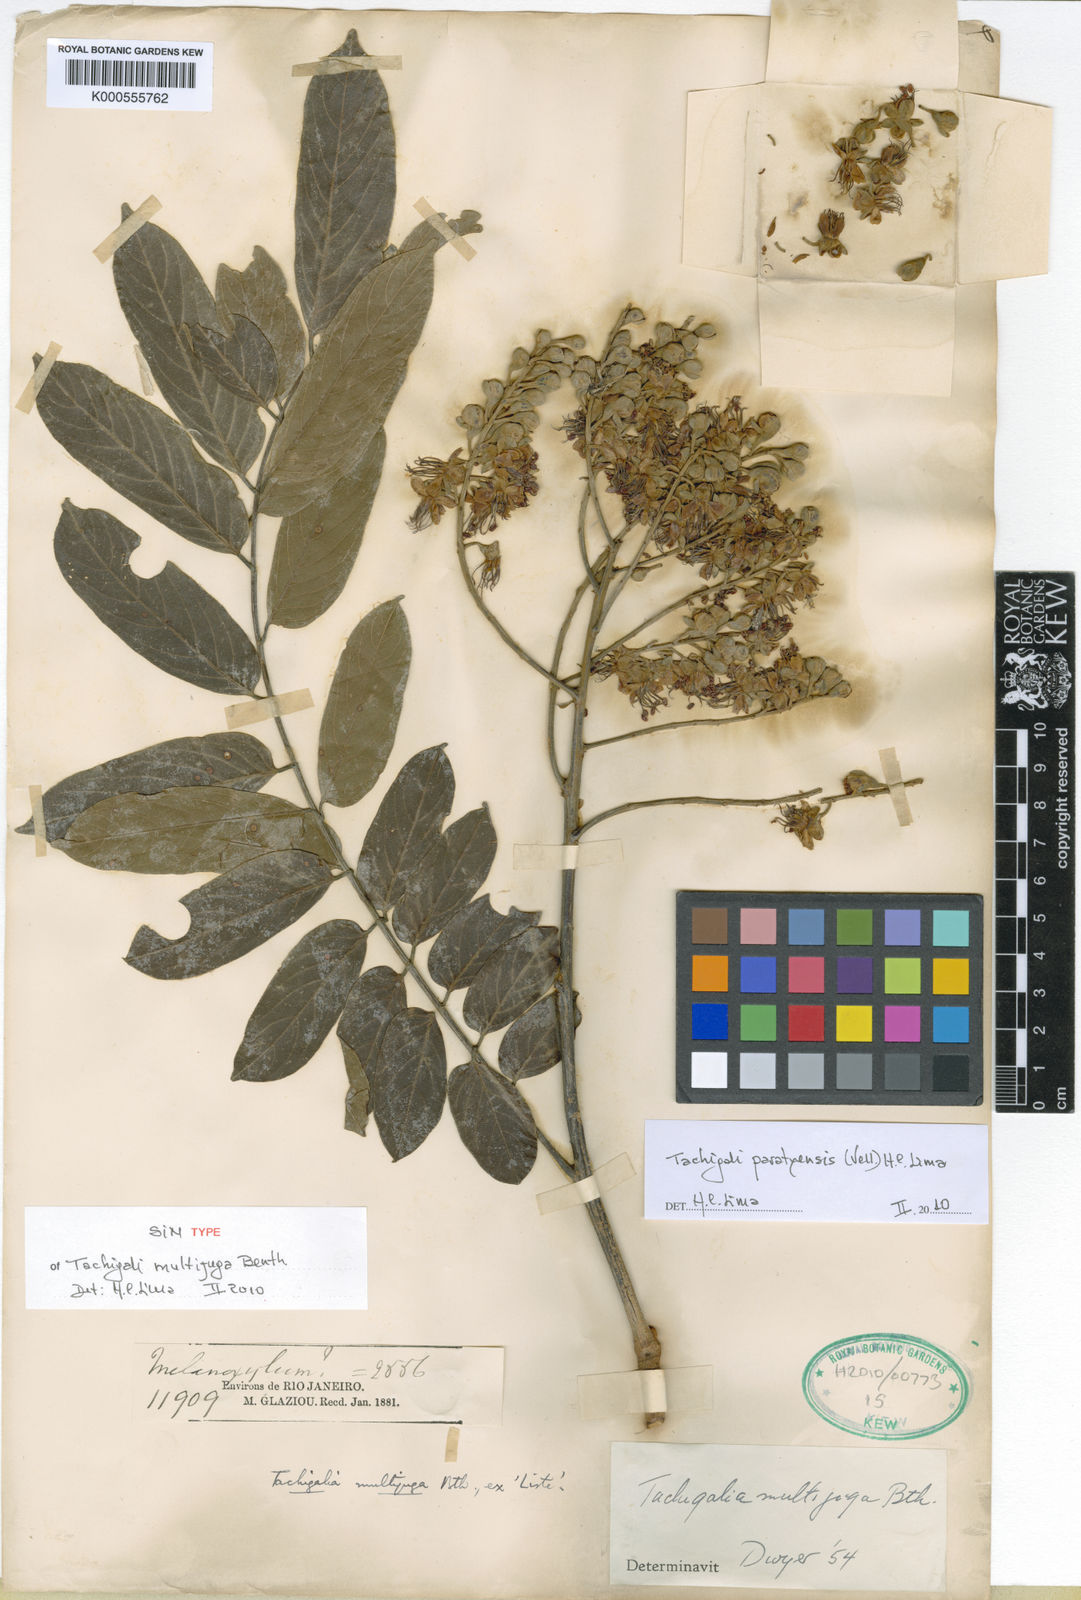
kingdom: Plantae
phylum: Tracheophyta
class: Magnoliopsida
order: Fabales
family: Fabaceae
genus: Tachigali
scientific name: Tachigali paratyensis
